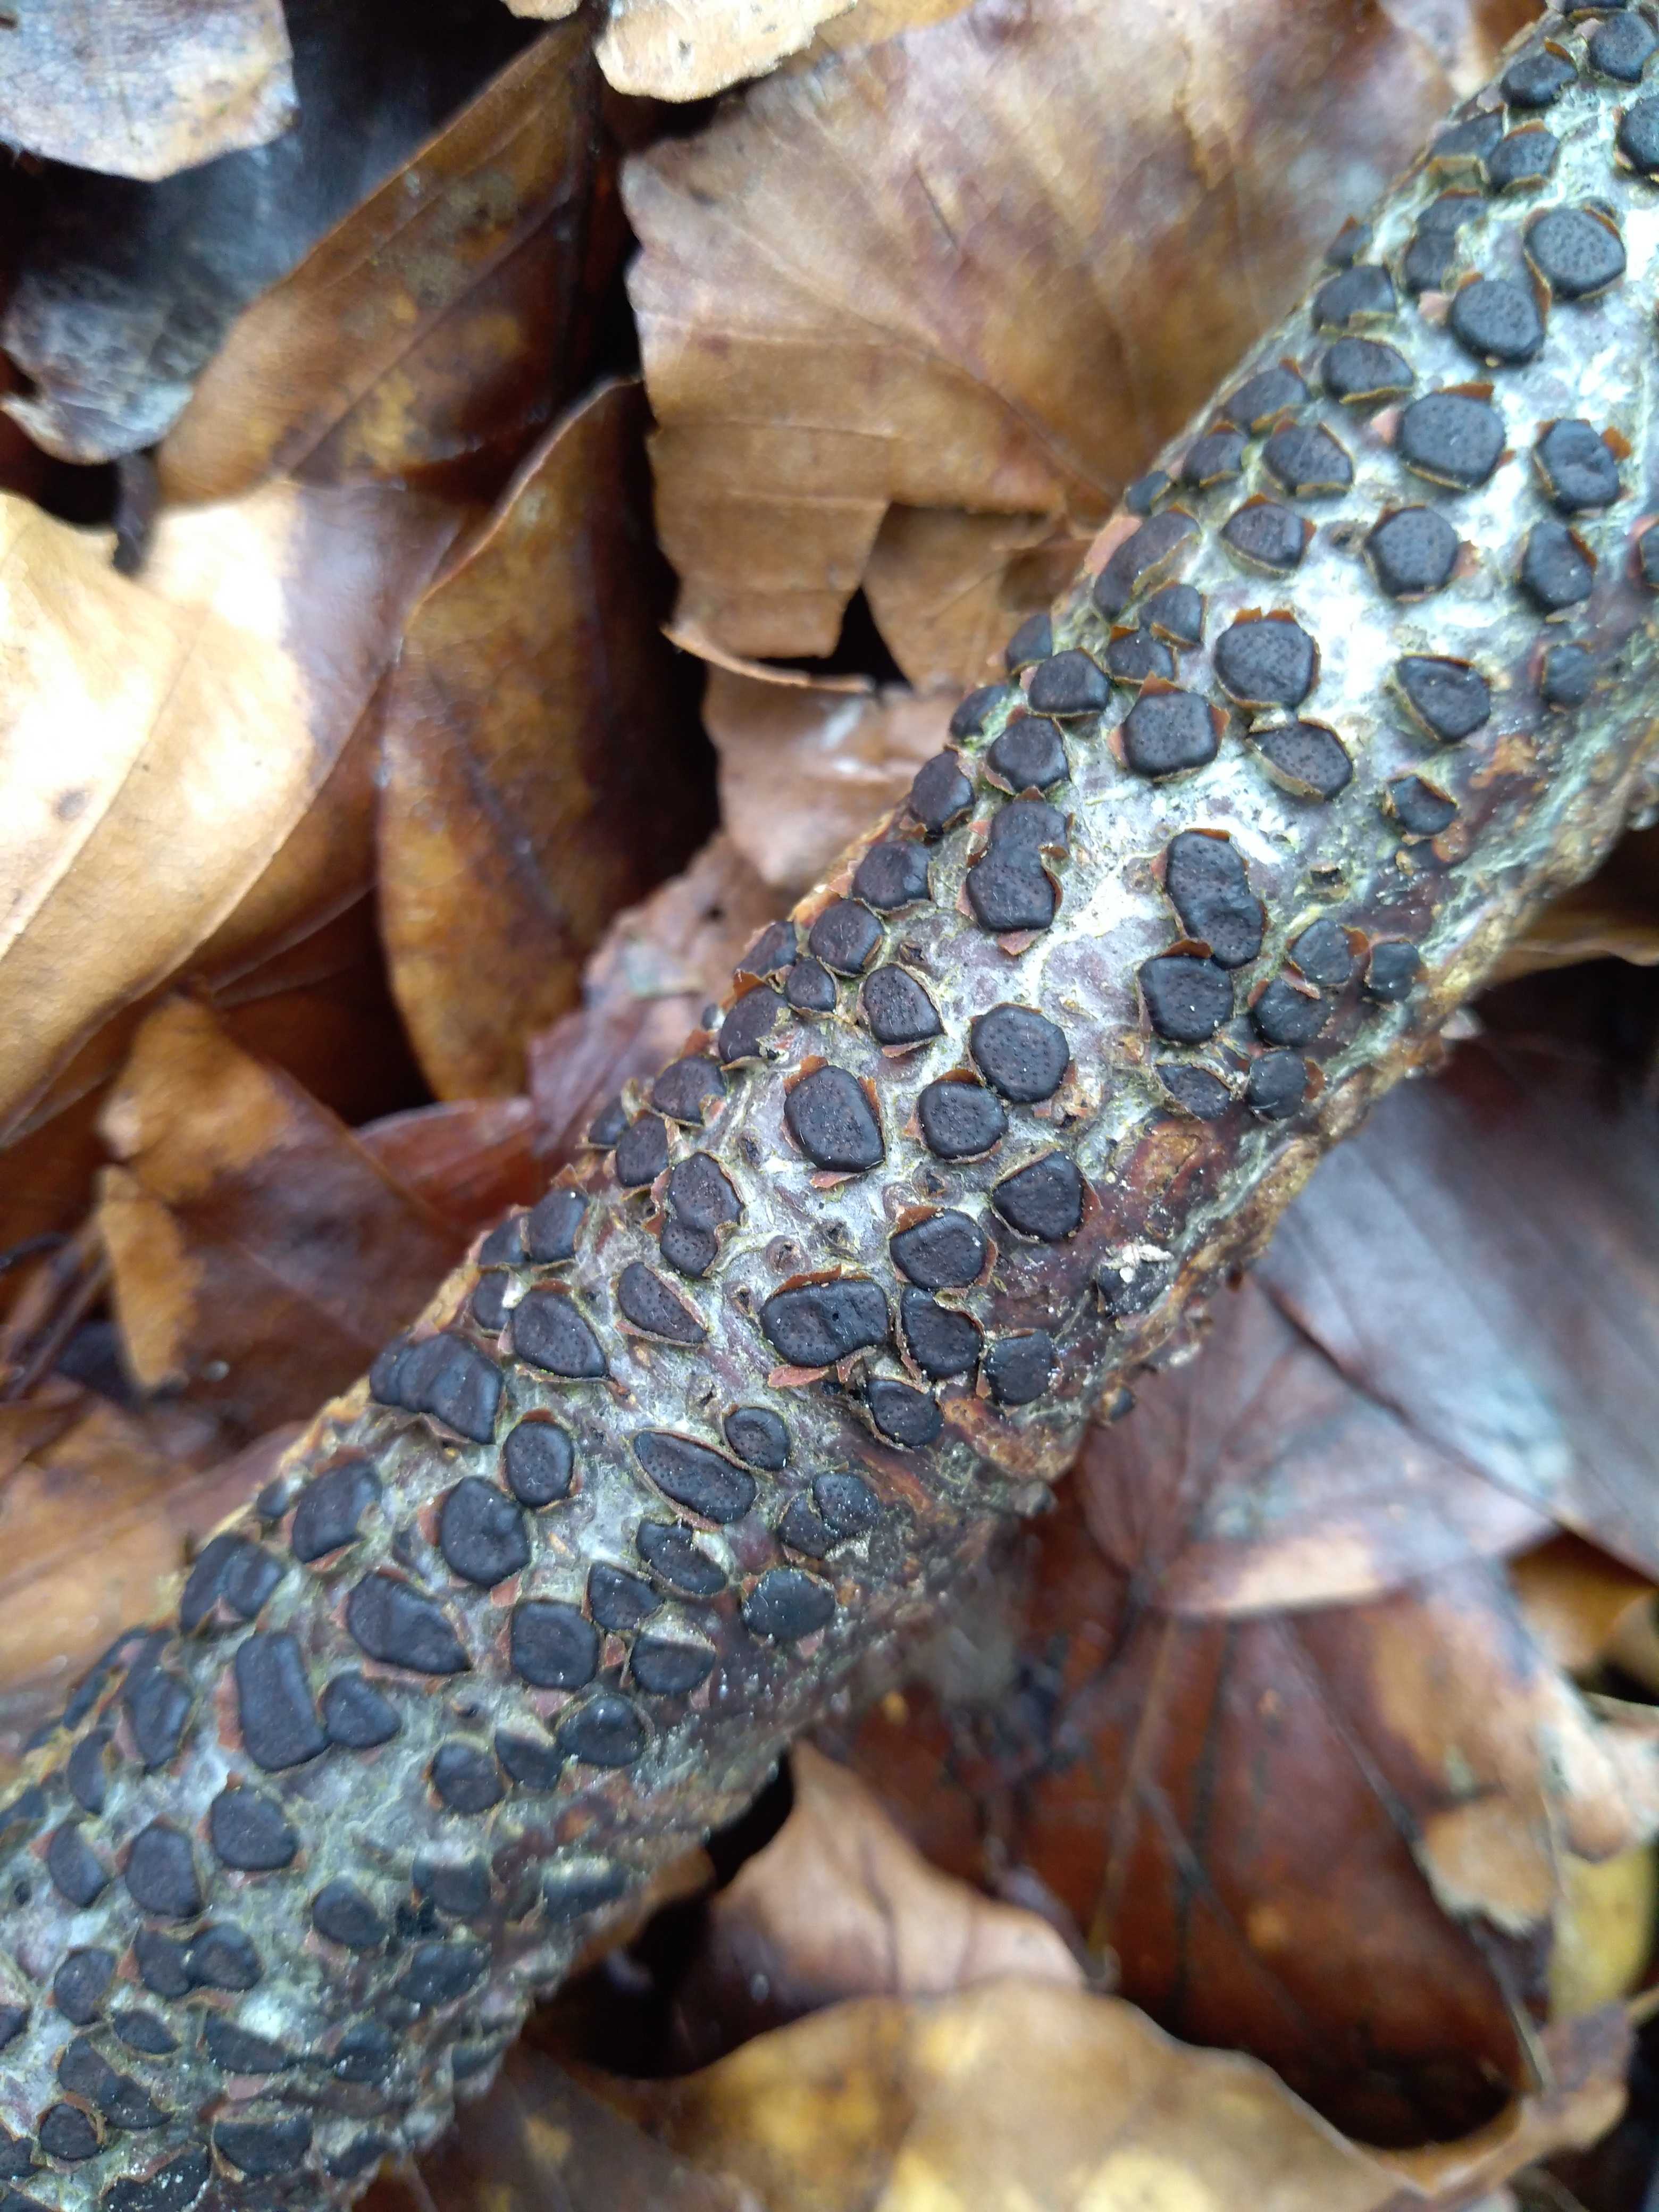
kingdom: Fungi
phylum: Ascomycota
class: Sordariomycetes
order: Xylariales
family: Diatrypaceae
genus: Diatrype
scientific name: Diatrype disciformis
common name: kant-kulskorpe
